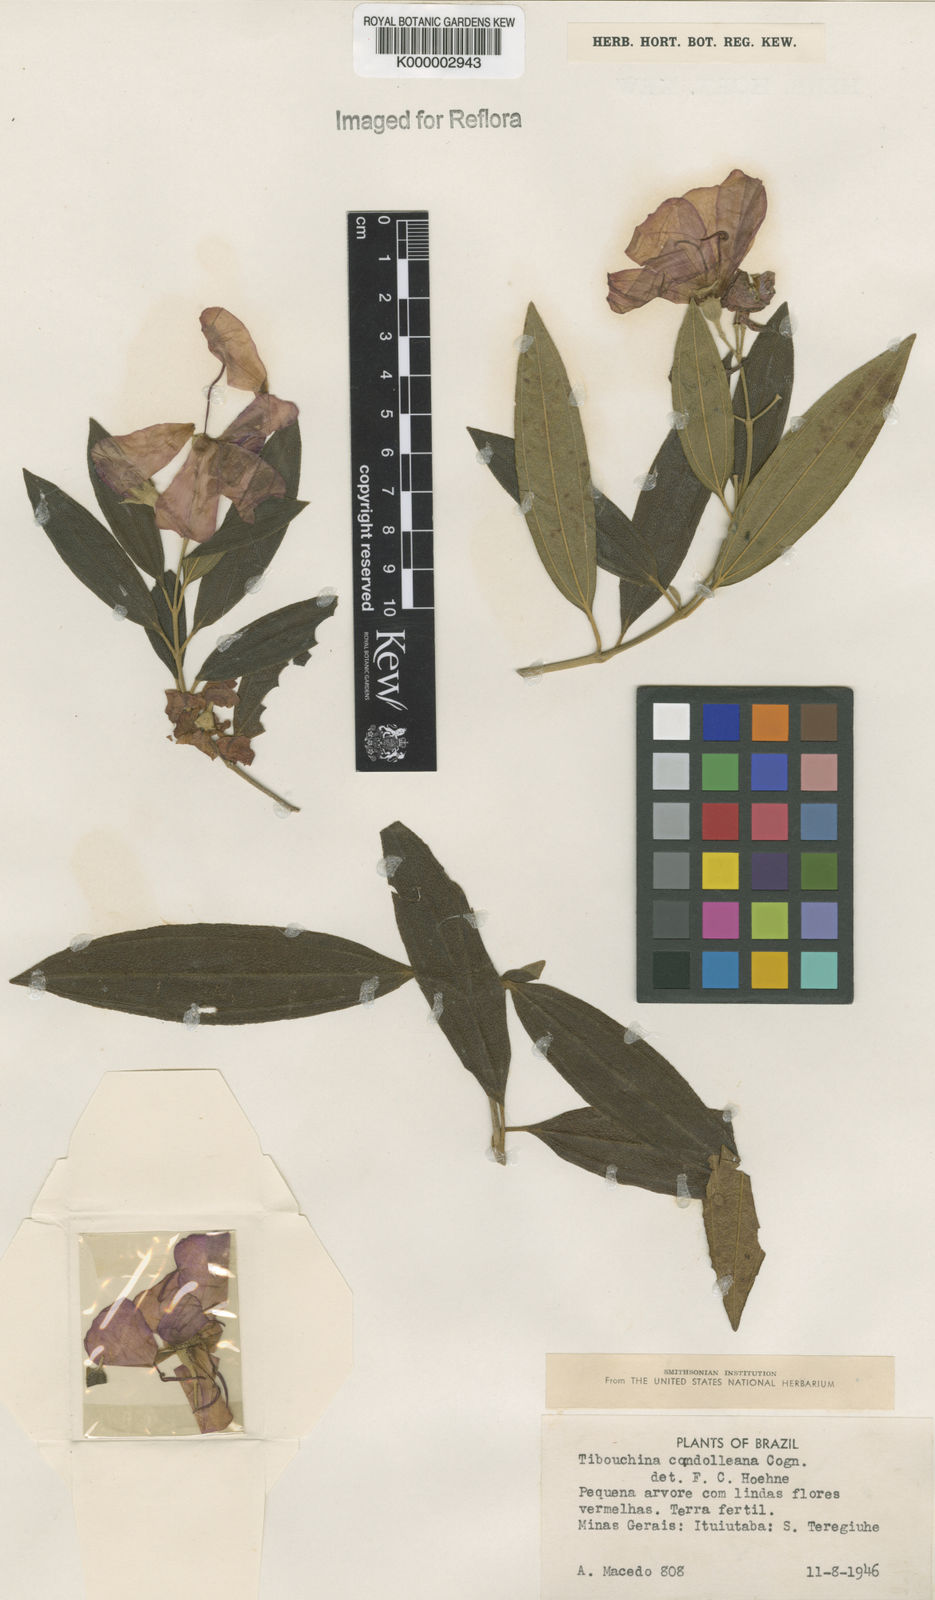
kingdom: Plantae
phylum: Tracheophyta
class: Magnoliopsida
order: Myrtales
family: Melastomataceae
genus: Pleroma
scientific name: Pleroma candolleanum
